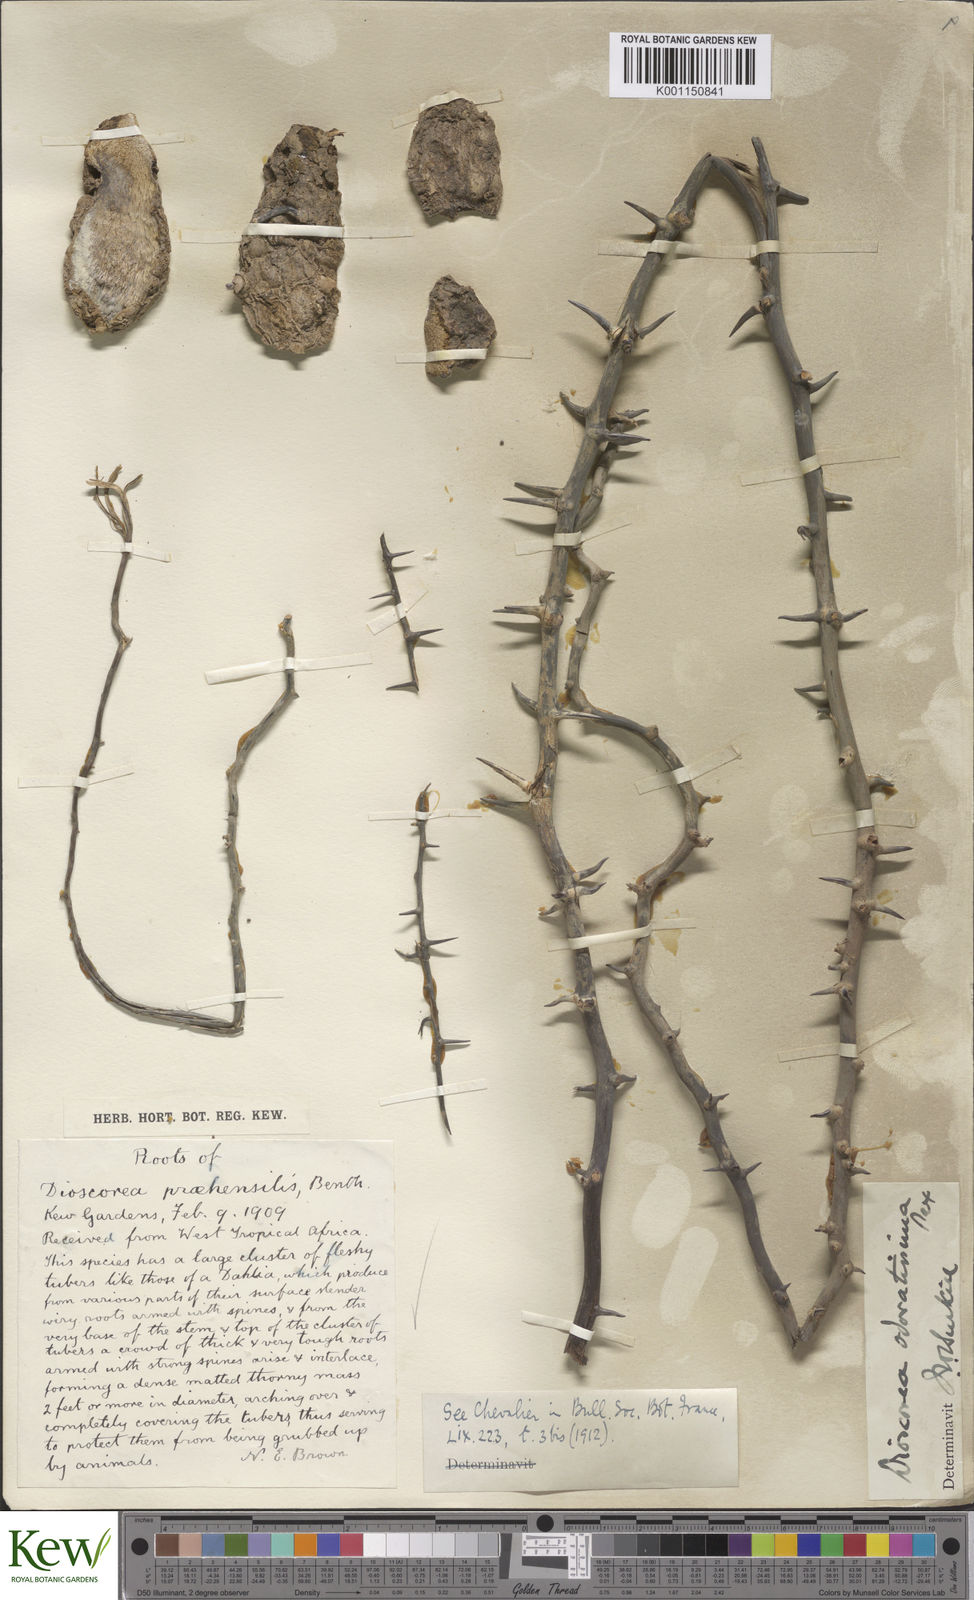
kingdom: Plantae
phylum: Tracheophyta
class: Liliopsida
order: Dioscoreales
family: Dioscoreaceae
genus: Dioscorea
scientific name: Dioscorea praehensilis
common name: Bush yam
